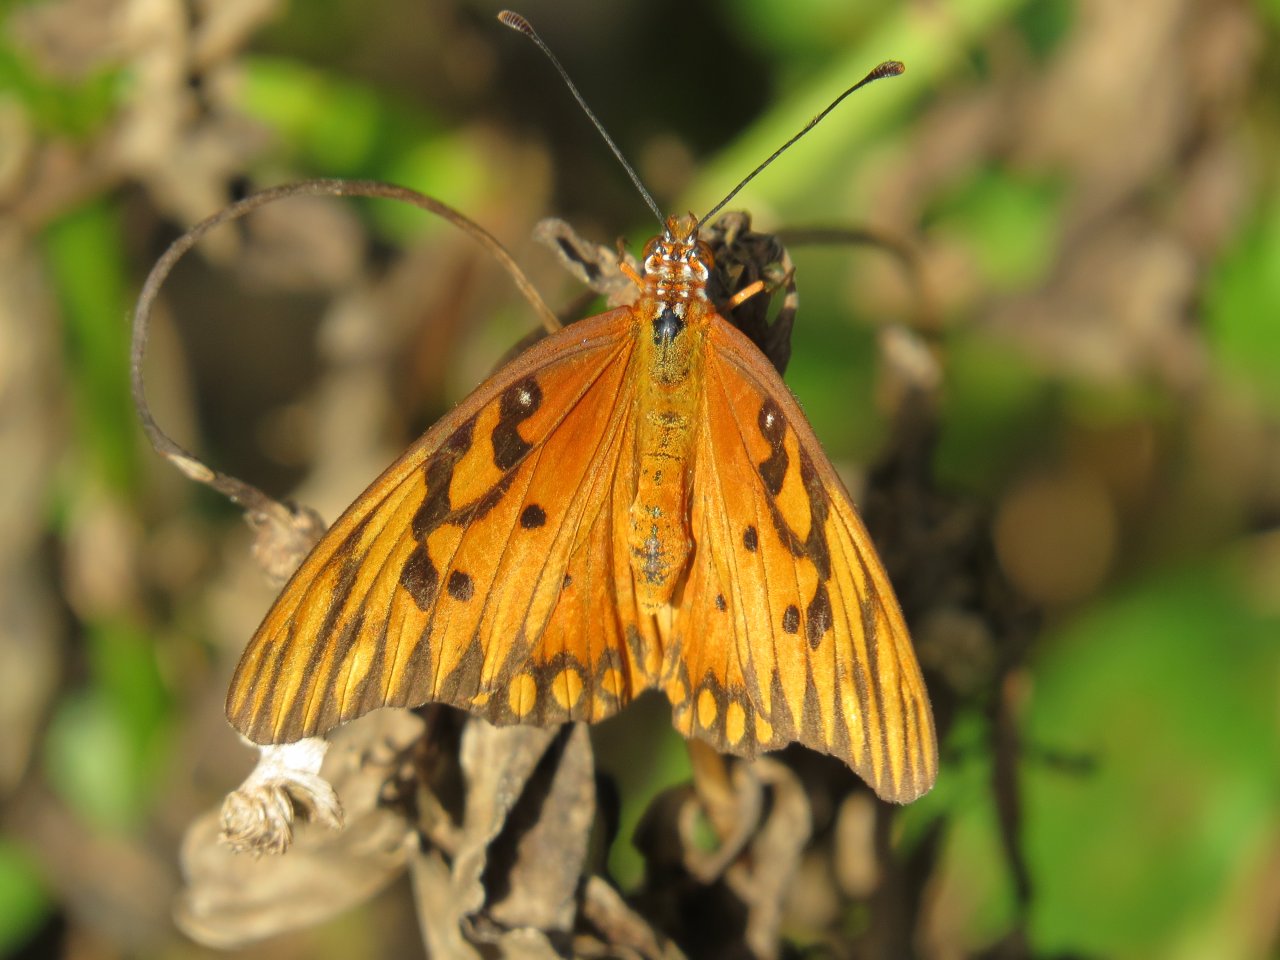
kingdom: Animalia
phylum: Arthropoda
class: Insecta
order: Lepidoptera
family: Nymphalidae
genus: Dione
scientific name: Dione vanillae
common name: Gulf Fritillary
